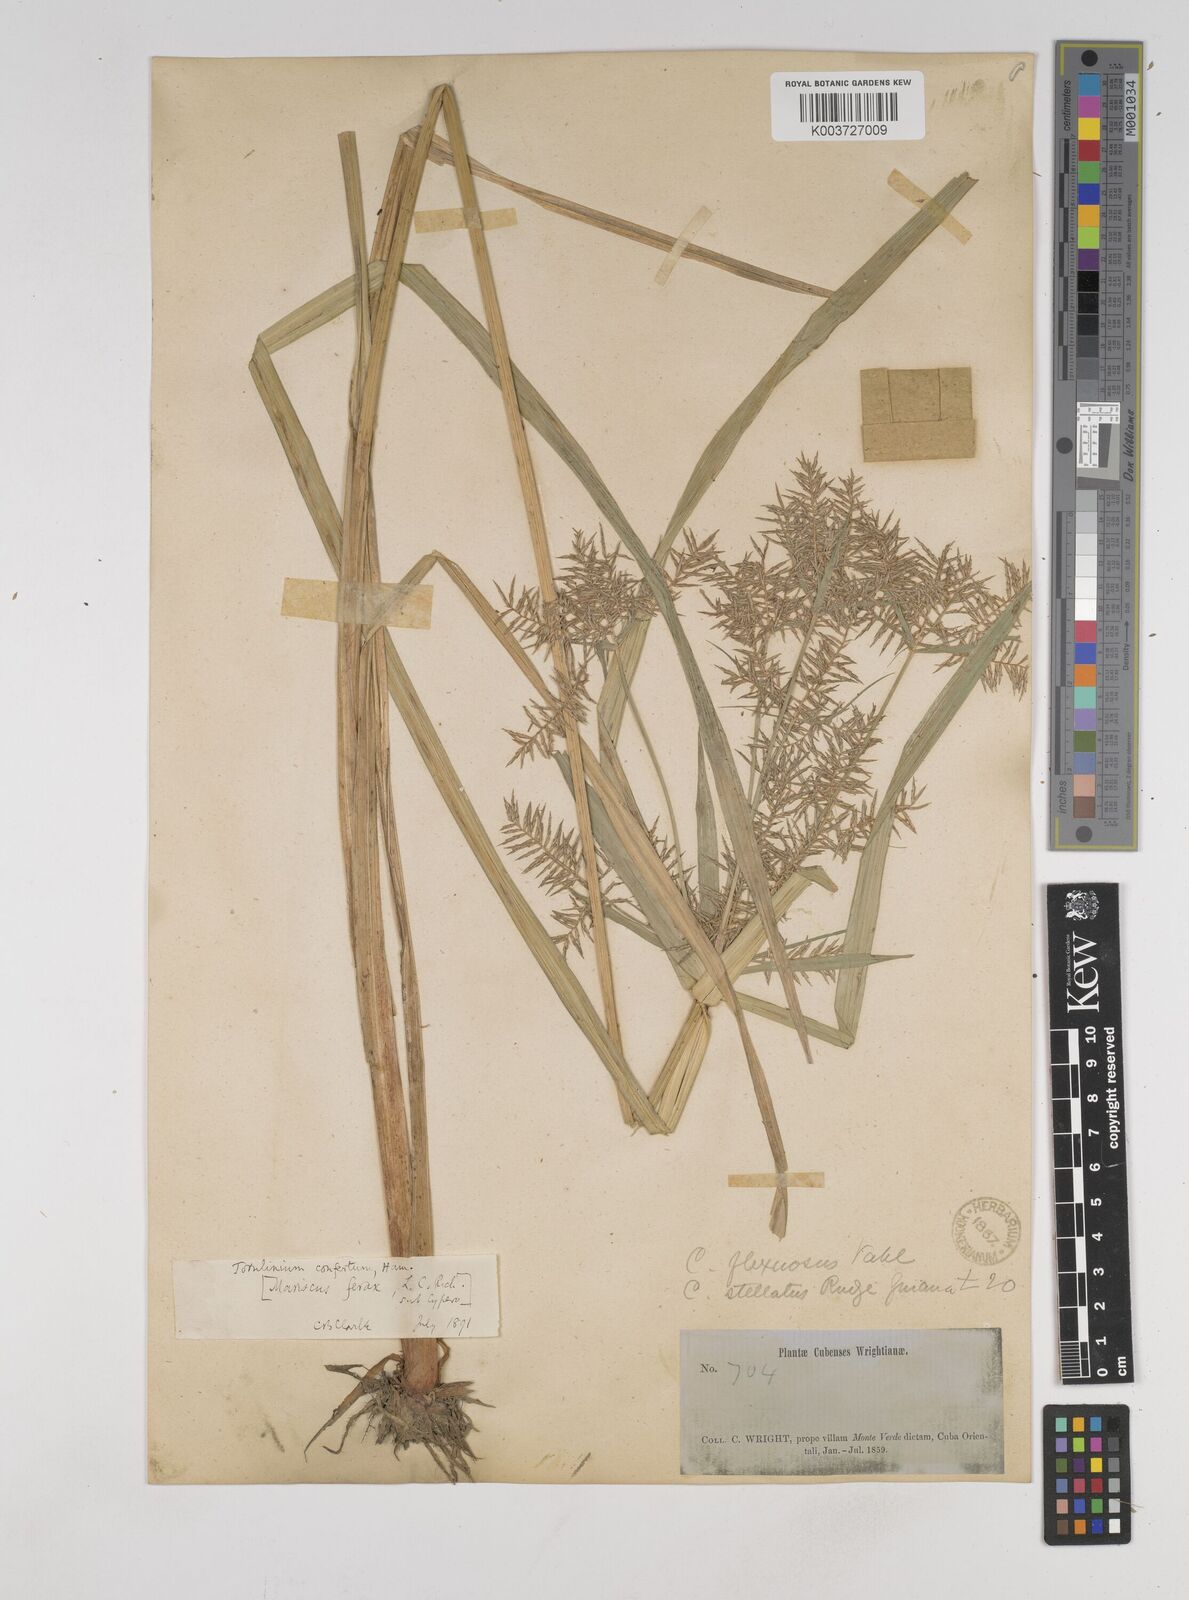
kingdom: Plantae
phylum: Tracheophyta
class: Liliopsida
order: Poales
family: Cyperaceae
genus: Cyperus
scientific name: Cyperus odoratus
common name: Fragrant flatsedge
